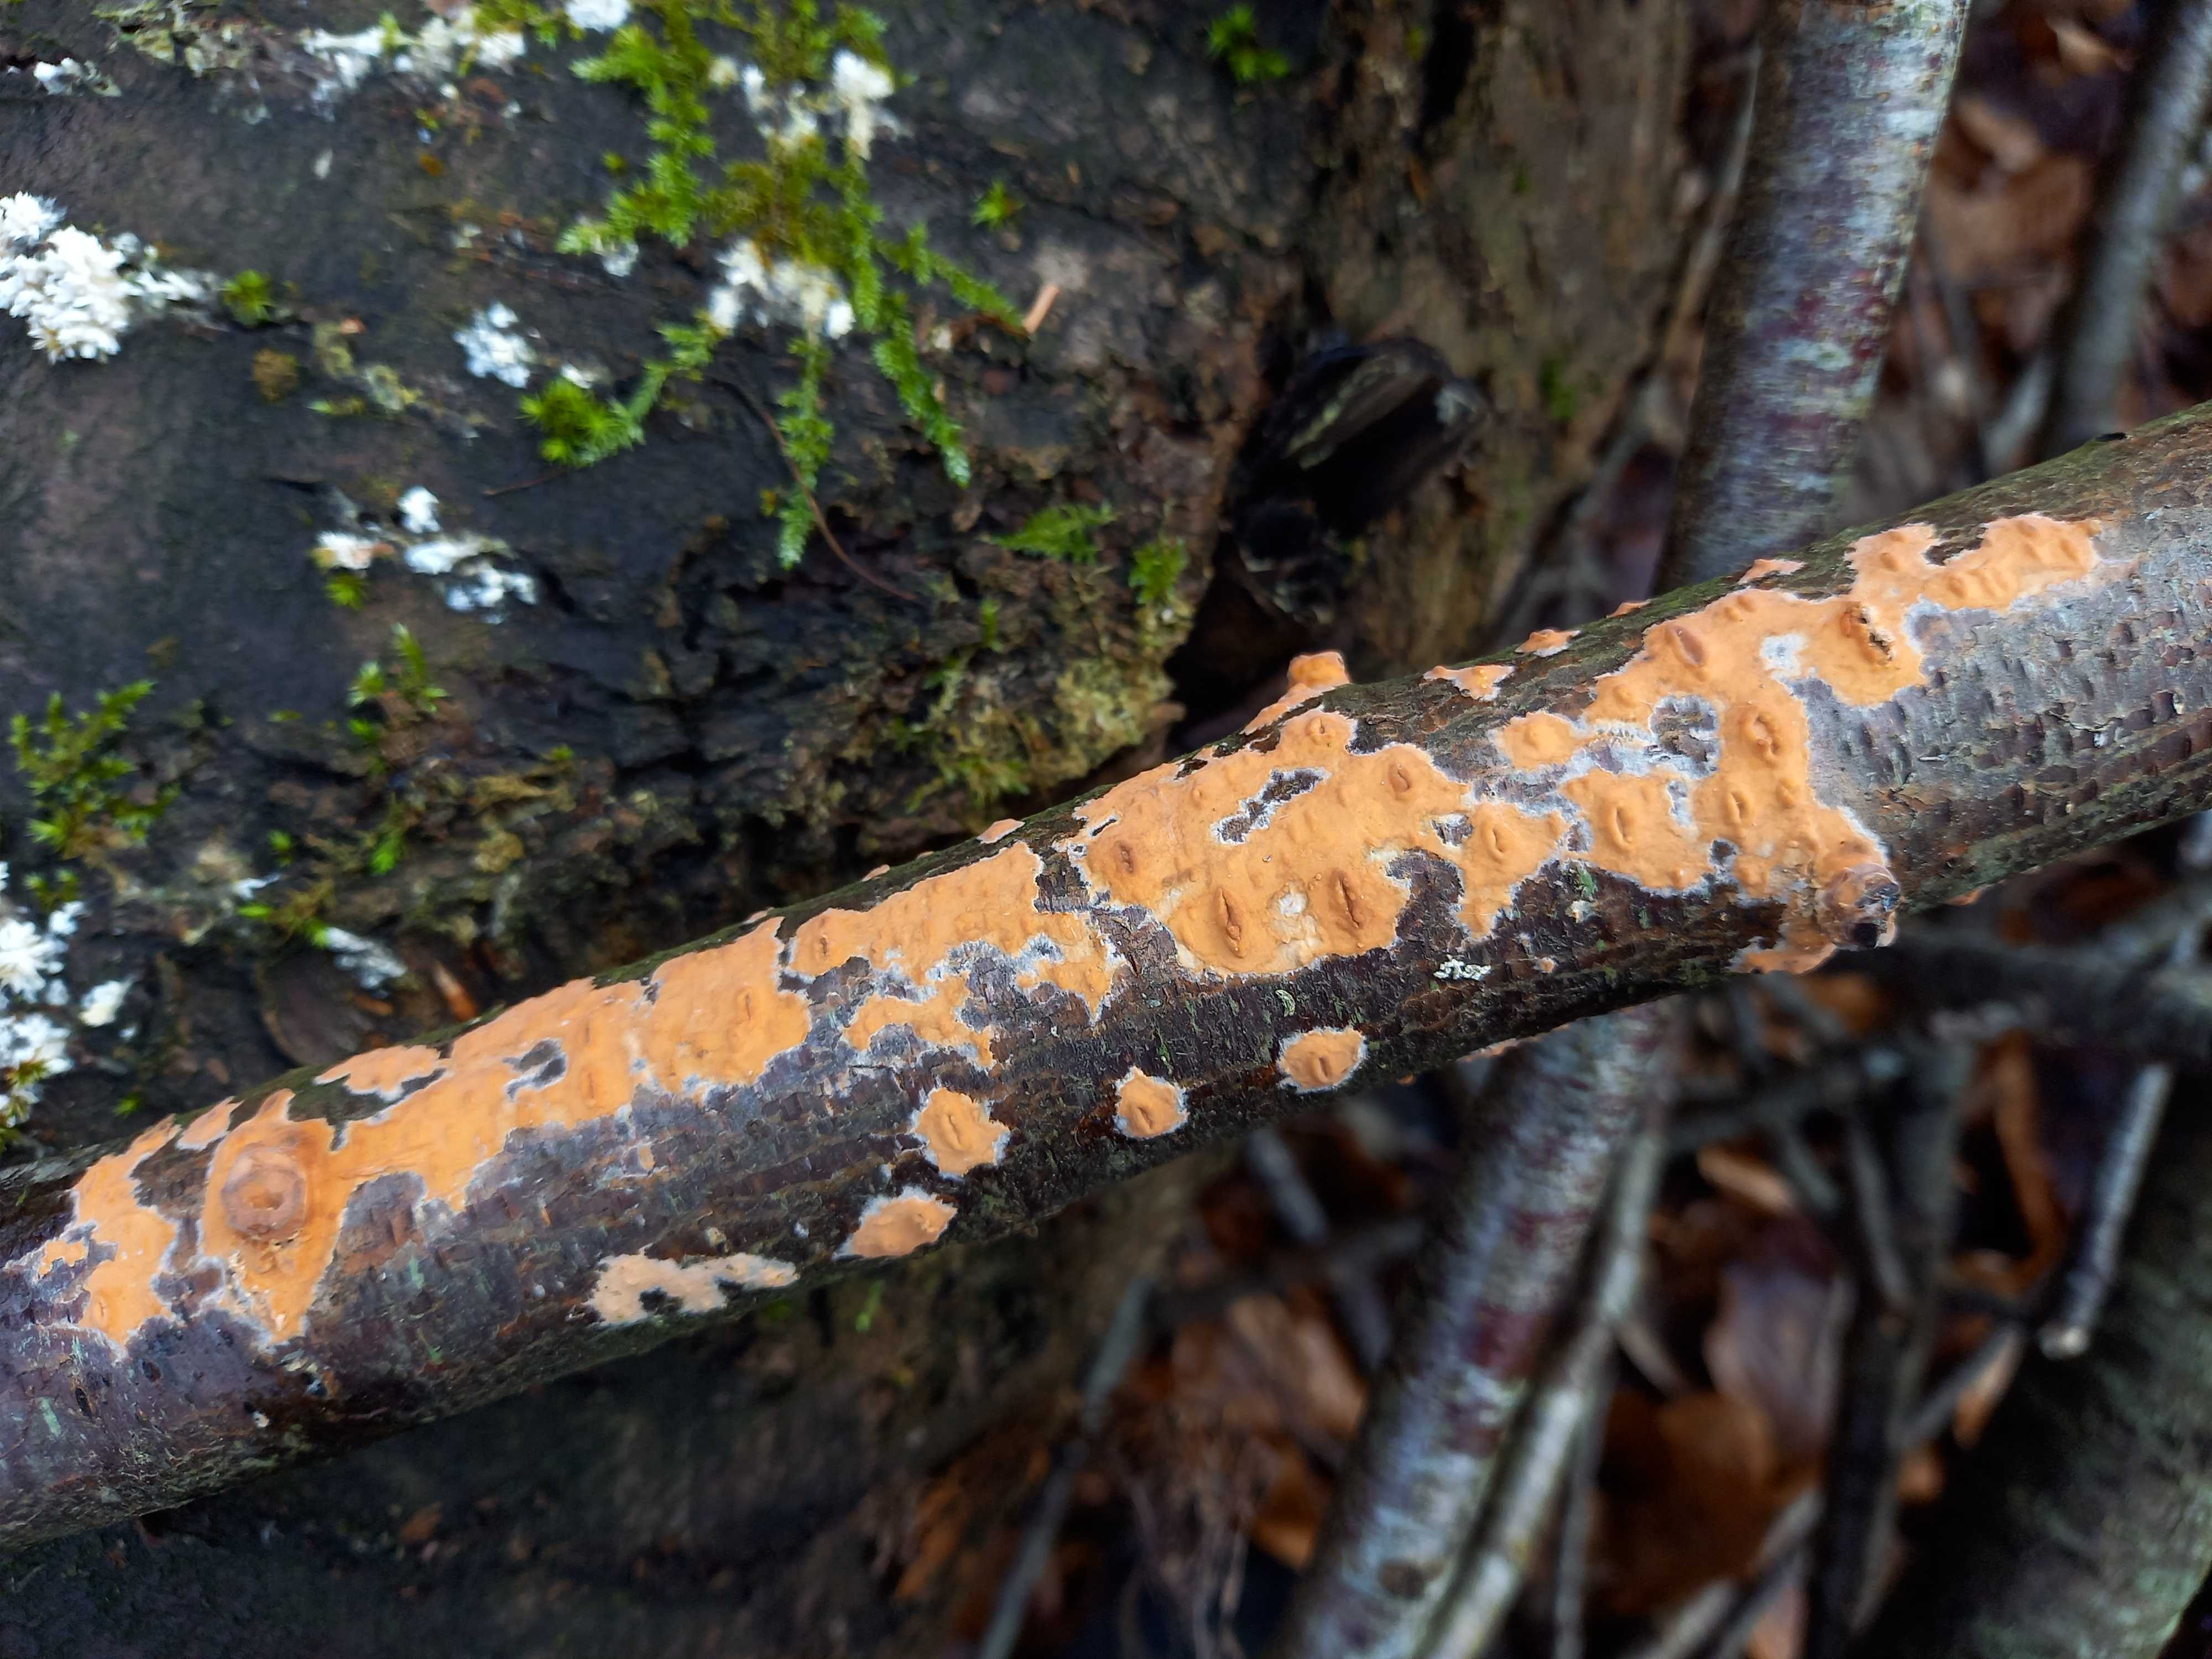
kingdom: Fungi
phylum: Basidiomycota
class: Agaricomycetes
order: Russulales
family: Peniophoraceae
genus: Peniophora
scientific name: Peniophora incarnata
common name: laksefarvet voksskind
